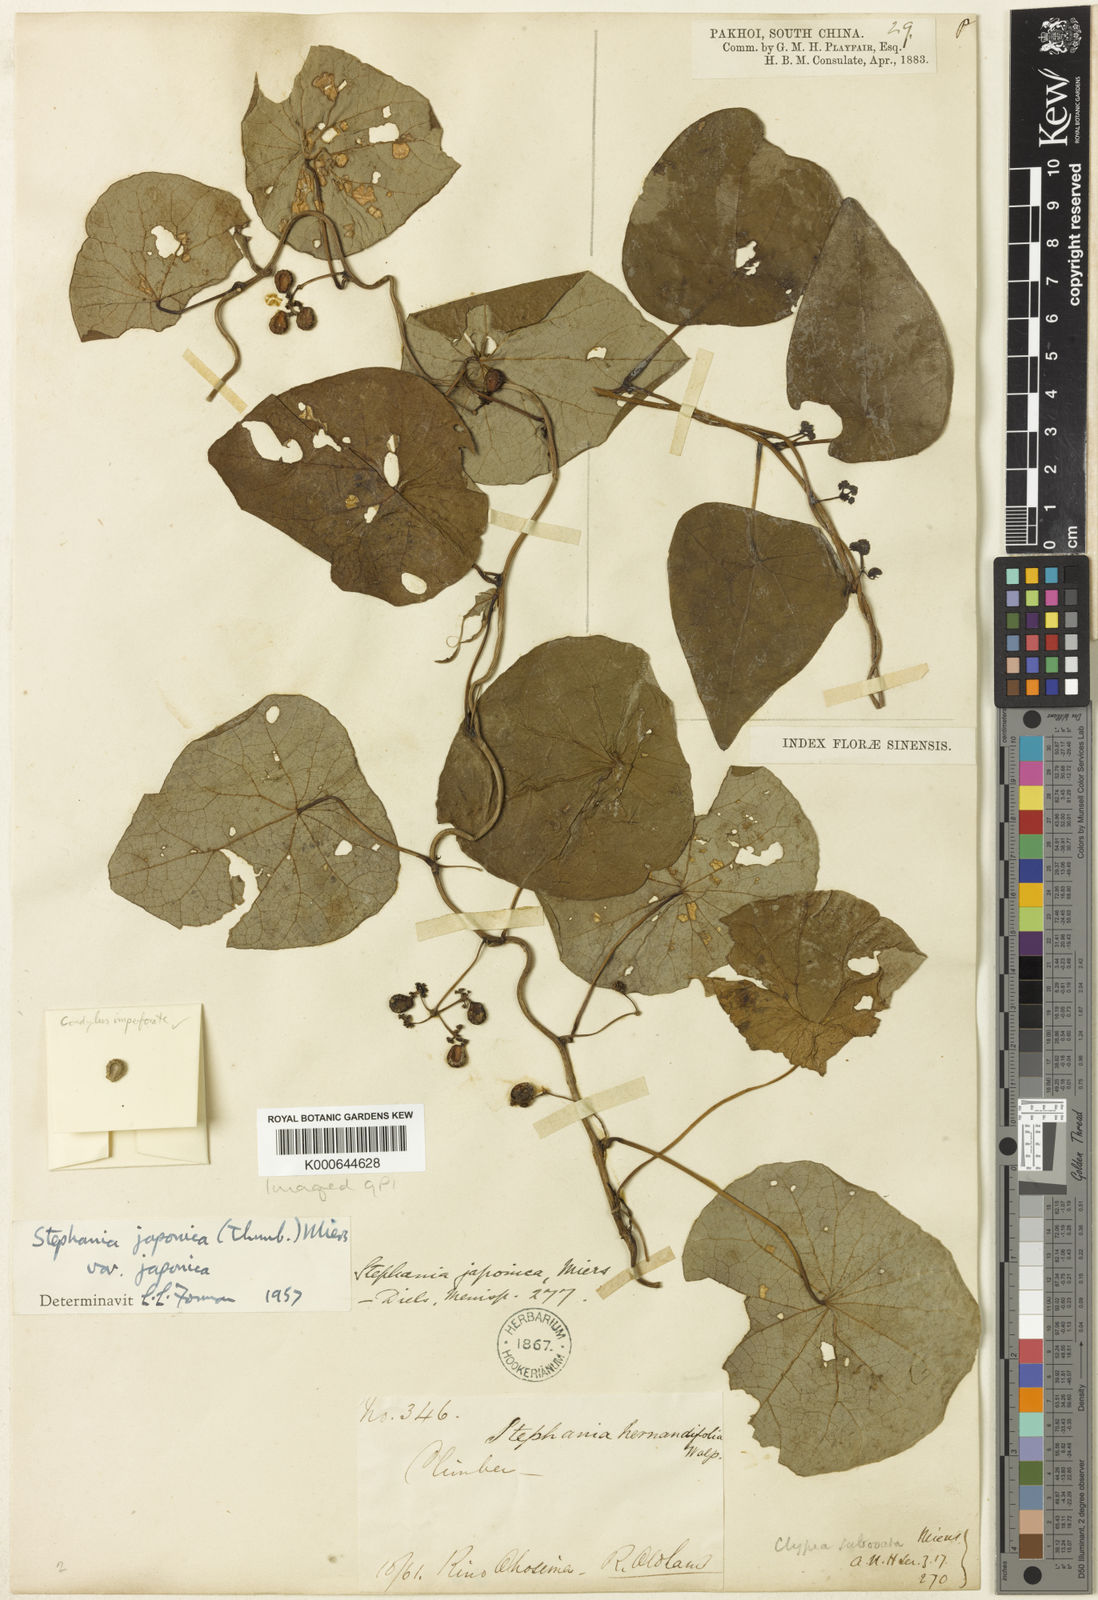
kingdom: Plantae
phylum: Tracheophyta
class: Magnoliopsida
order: Ranunculales
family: Menispermaceae
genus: Stephania
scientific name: Stephania japonica
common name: Snake vine
